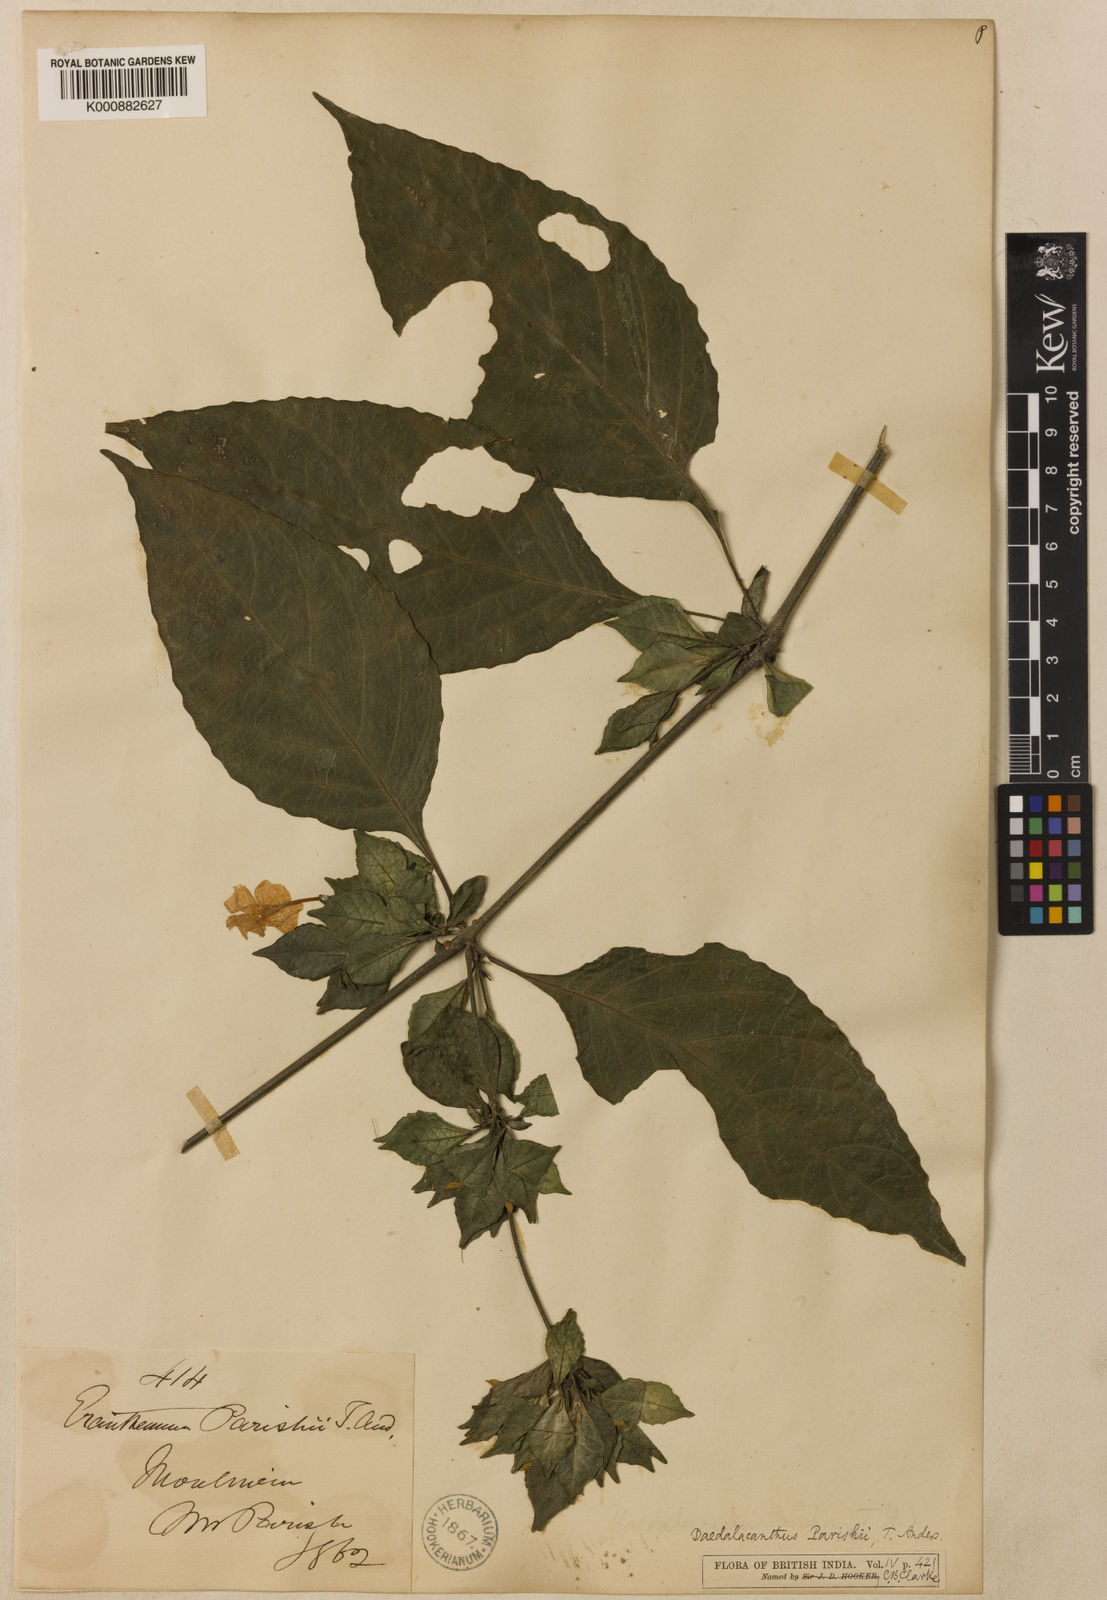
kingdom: Plantae
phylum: Tracheophyta
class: Magnoliopsida
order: Lamiales
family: Acanthaceae
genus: Pseuderanthemum
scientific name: Pseuderanthemum parishii
